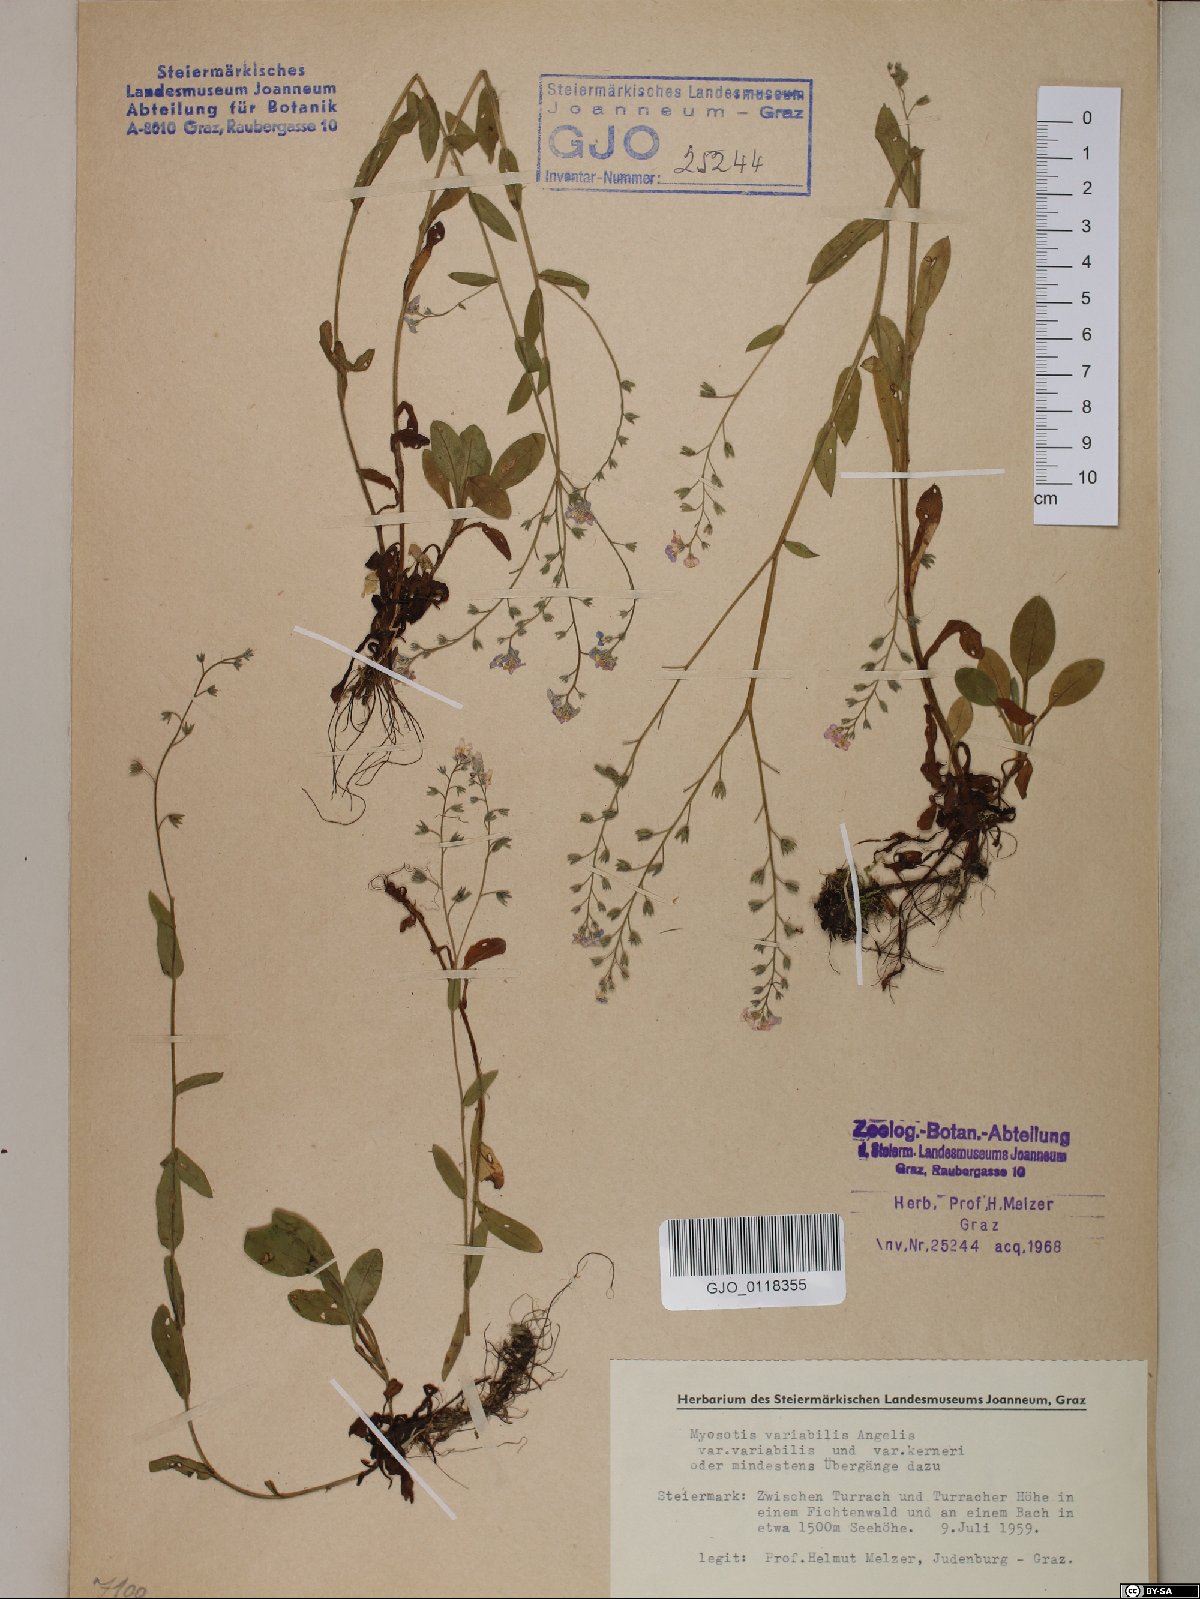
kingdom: Plantae
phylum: Tracheophyta
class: Magnoliopsida
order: Boraginales
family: Boraginaceae
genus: Myosotis
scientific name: Myosotis decumbens
